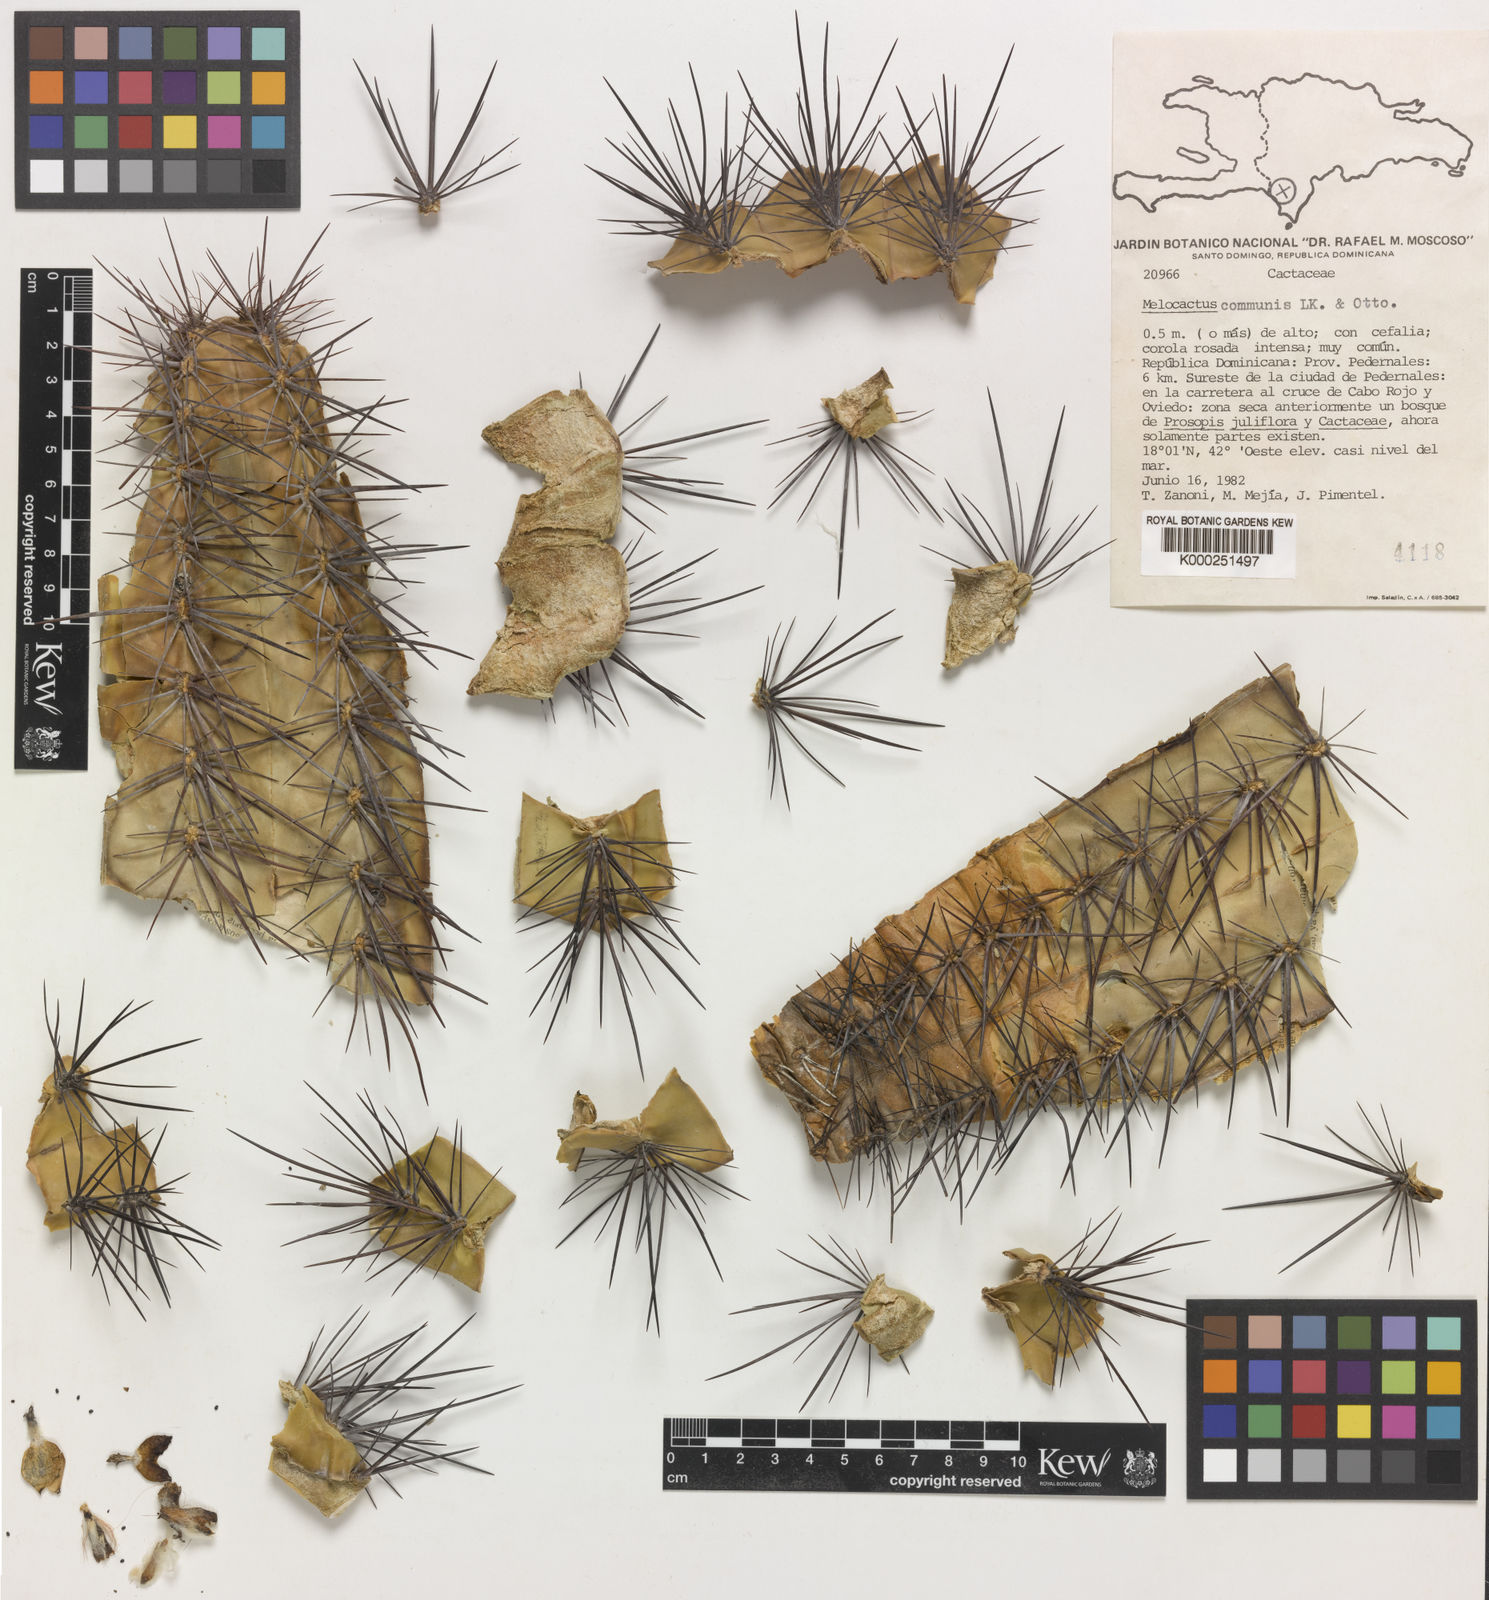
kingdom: Plantae
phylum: Tracheophyta
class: Magnoliopsida
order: Caryophyllales
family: Cactaceae
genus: Melocactus
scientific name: Melocactus
